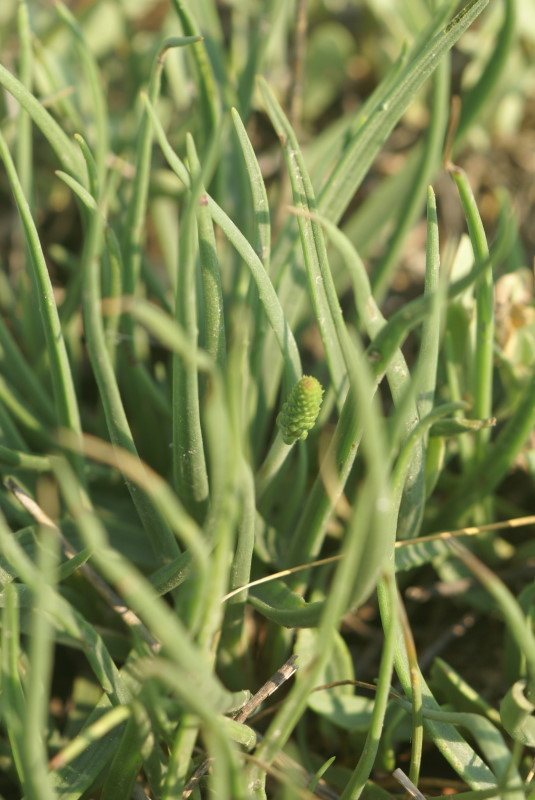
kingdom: Plantae
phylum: Tracheophyta
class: Magnoliopsida
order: Lamiales
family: Plantaginaceae
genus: Plantago
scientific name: Plantago maritima
